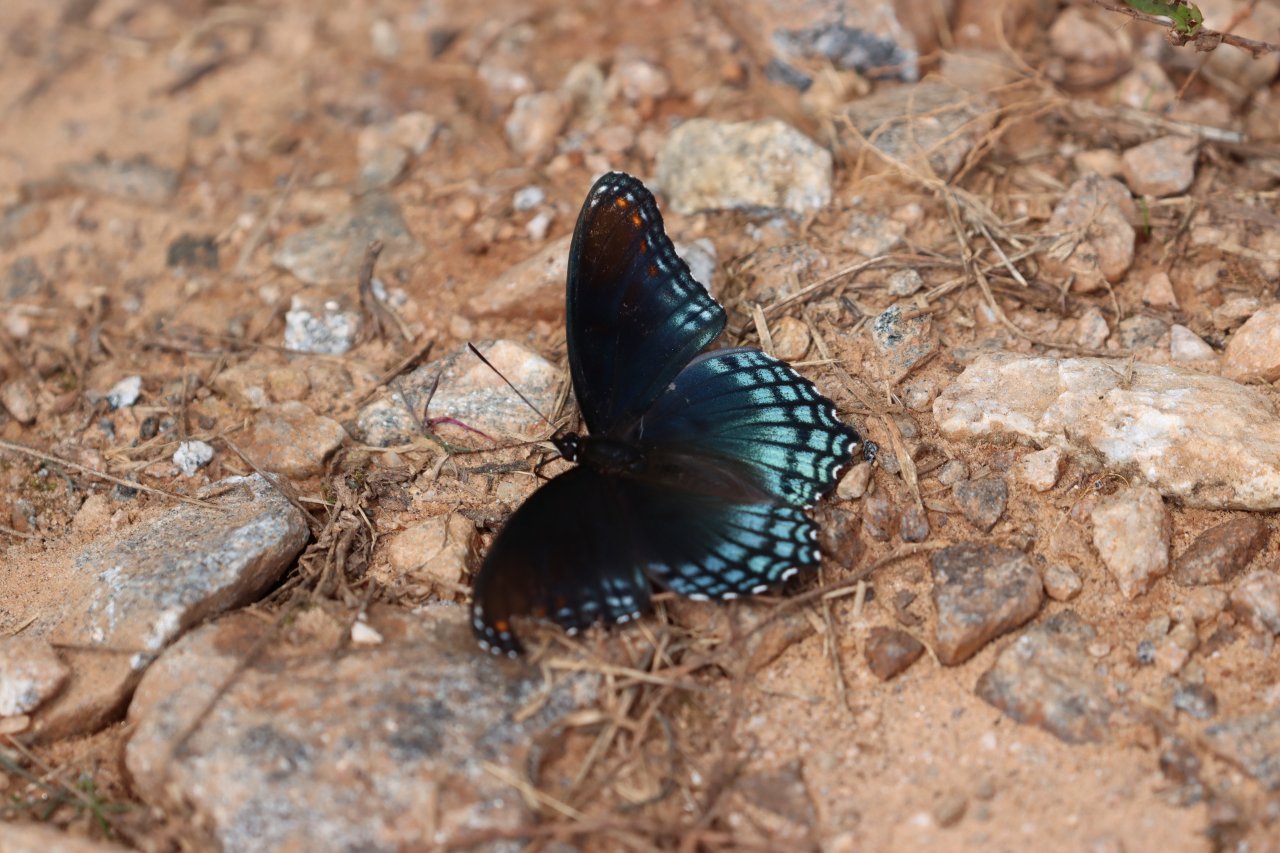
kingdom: Animalia
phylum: Arthropoda
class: Insecta
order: Lepidoptera
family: Nymphalidae
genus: Limenitis
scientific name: Limenitis arthemis
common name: Red-spotted Admiral
